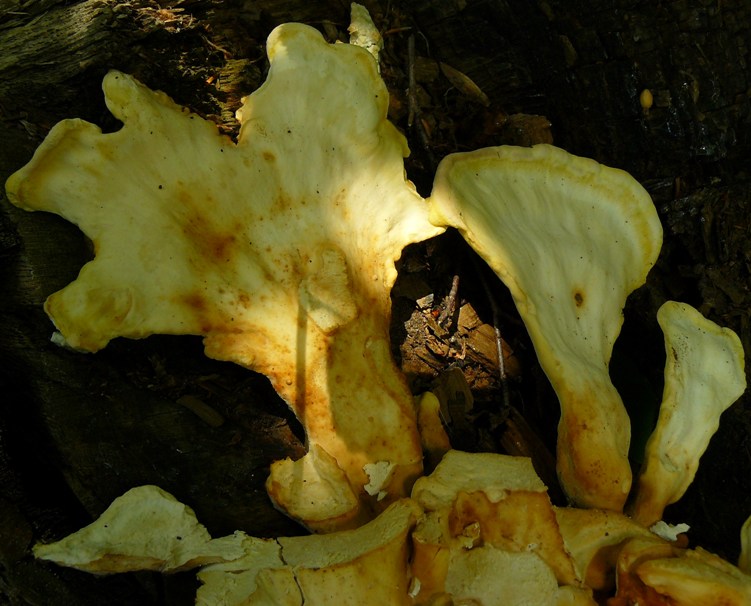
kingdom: Fungi
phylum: Basidiomycota
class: Agaricomycetes
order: Polyporales
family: Laetiporaceae
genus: Laetiporus
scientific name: Laetiporus sulphureus
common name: svovlporesvamp
